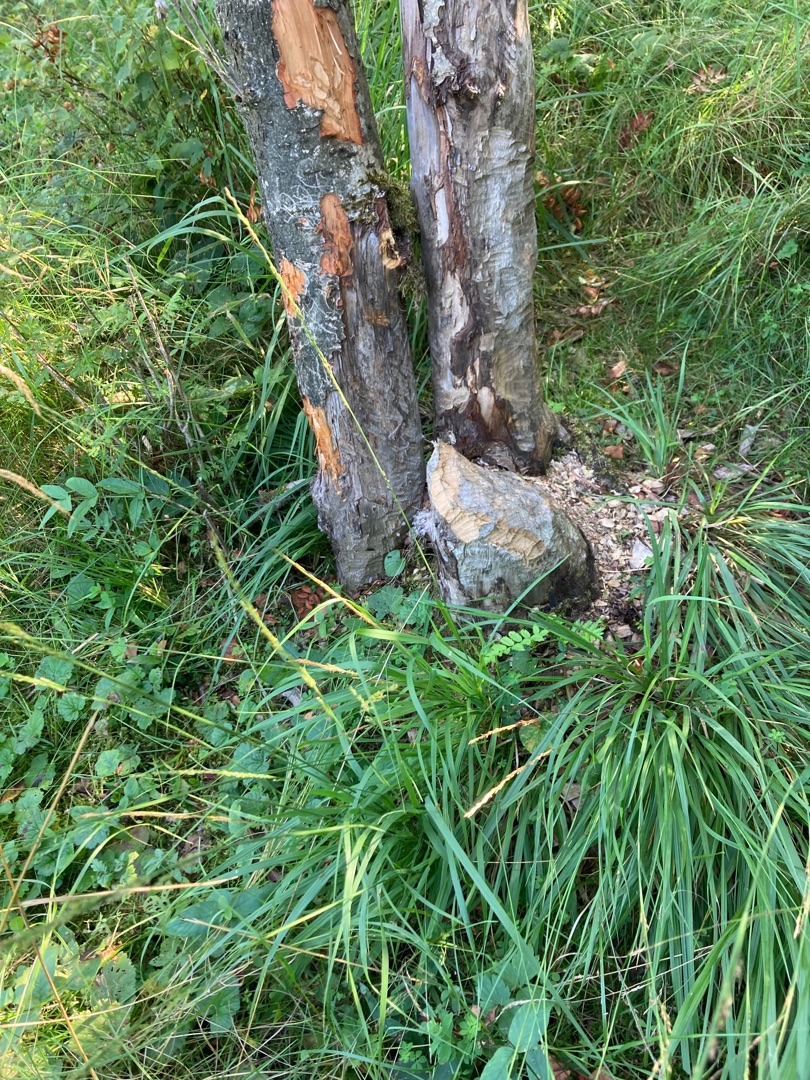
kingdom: Animalia
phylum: Chordata
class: Mammalia
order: Rodentia
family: Castoridae
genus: Castor
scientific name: Castor fiber
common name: Bæver
